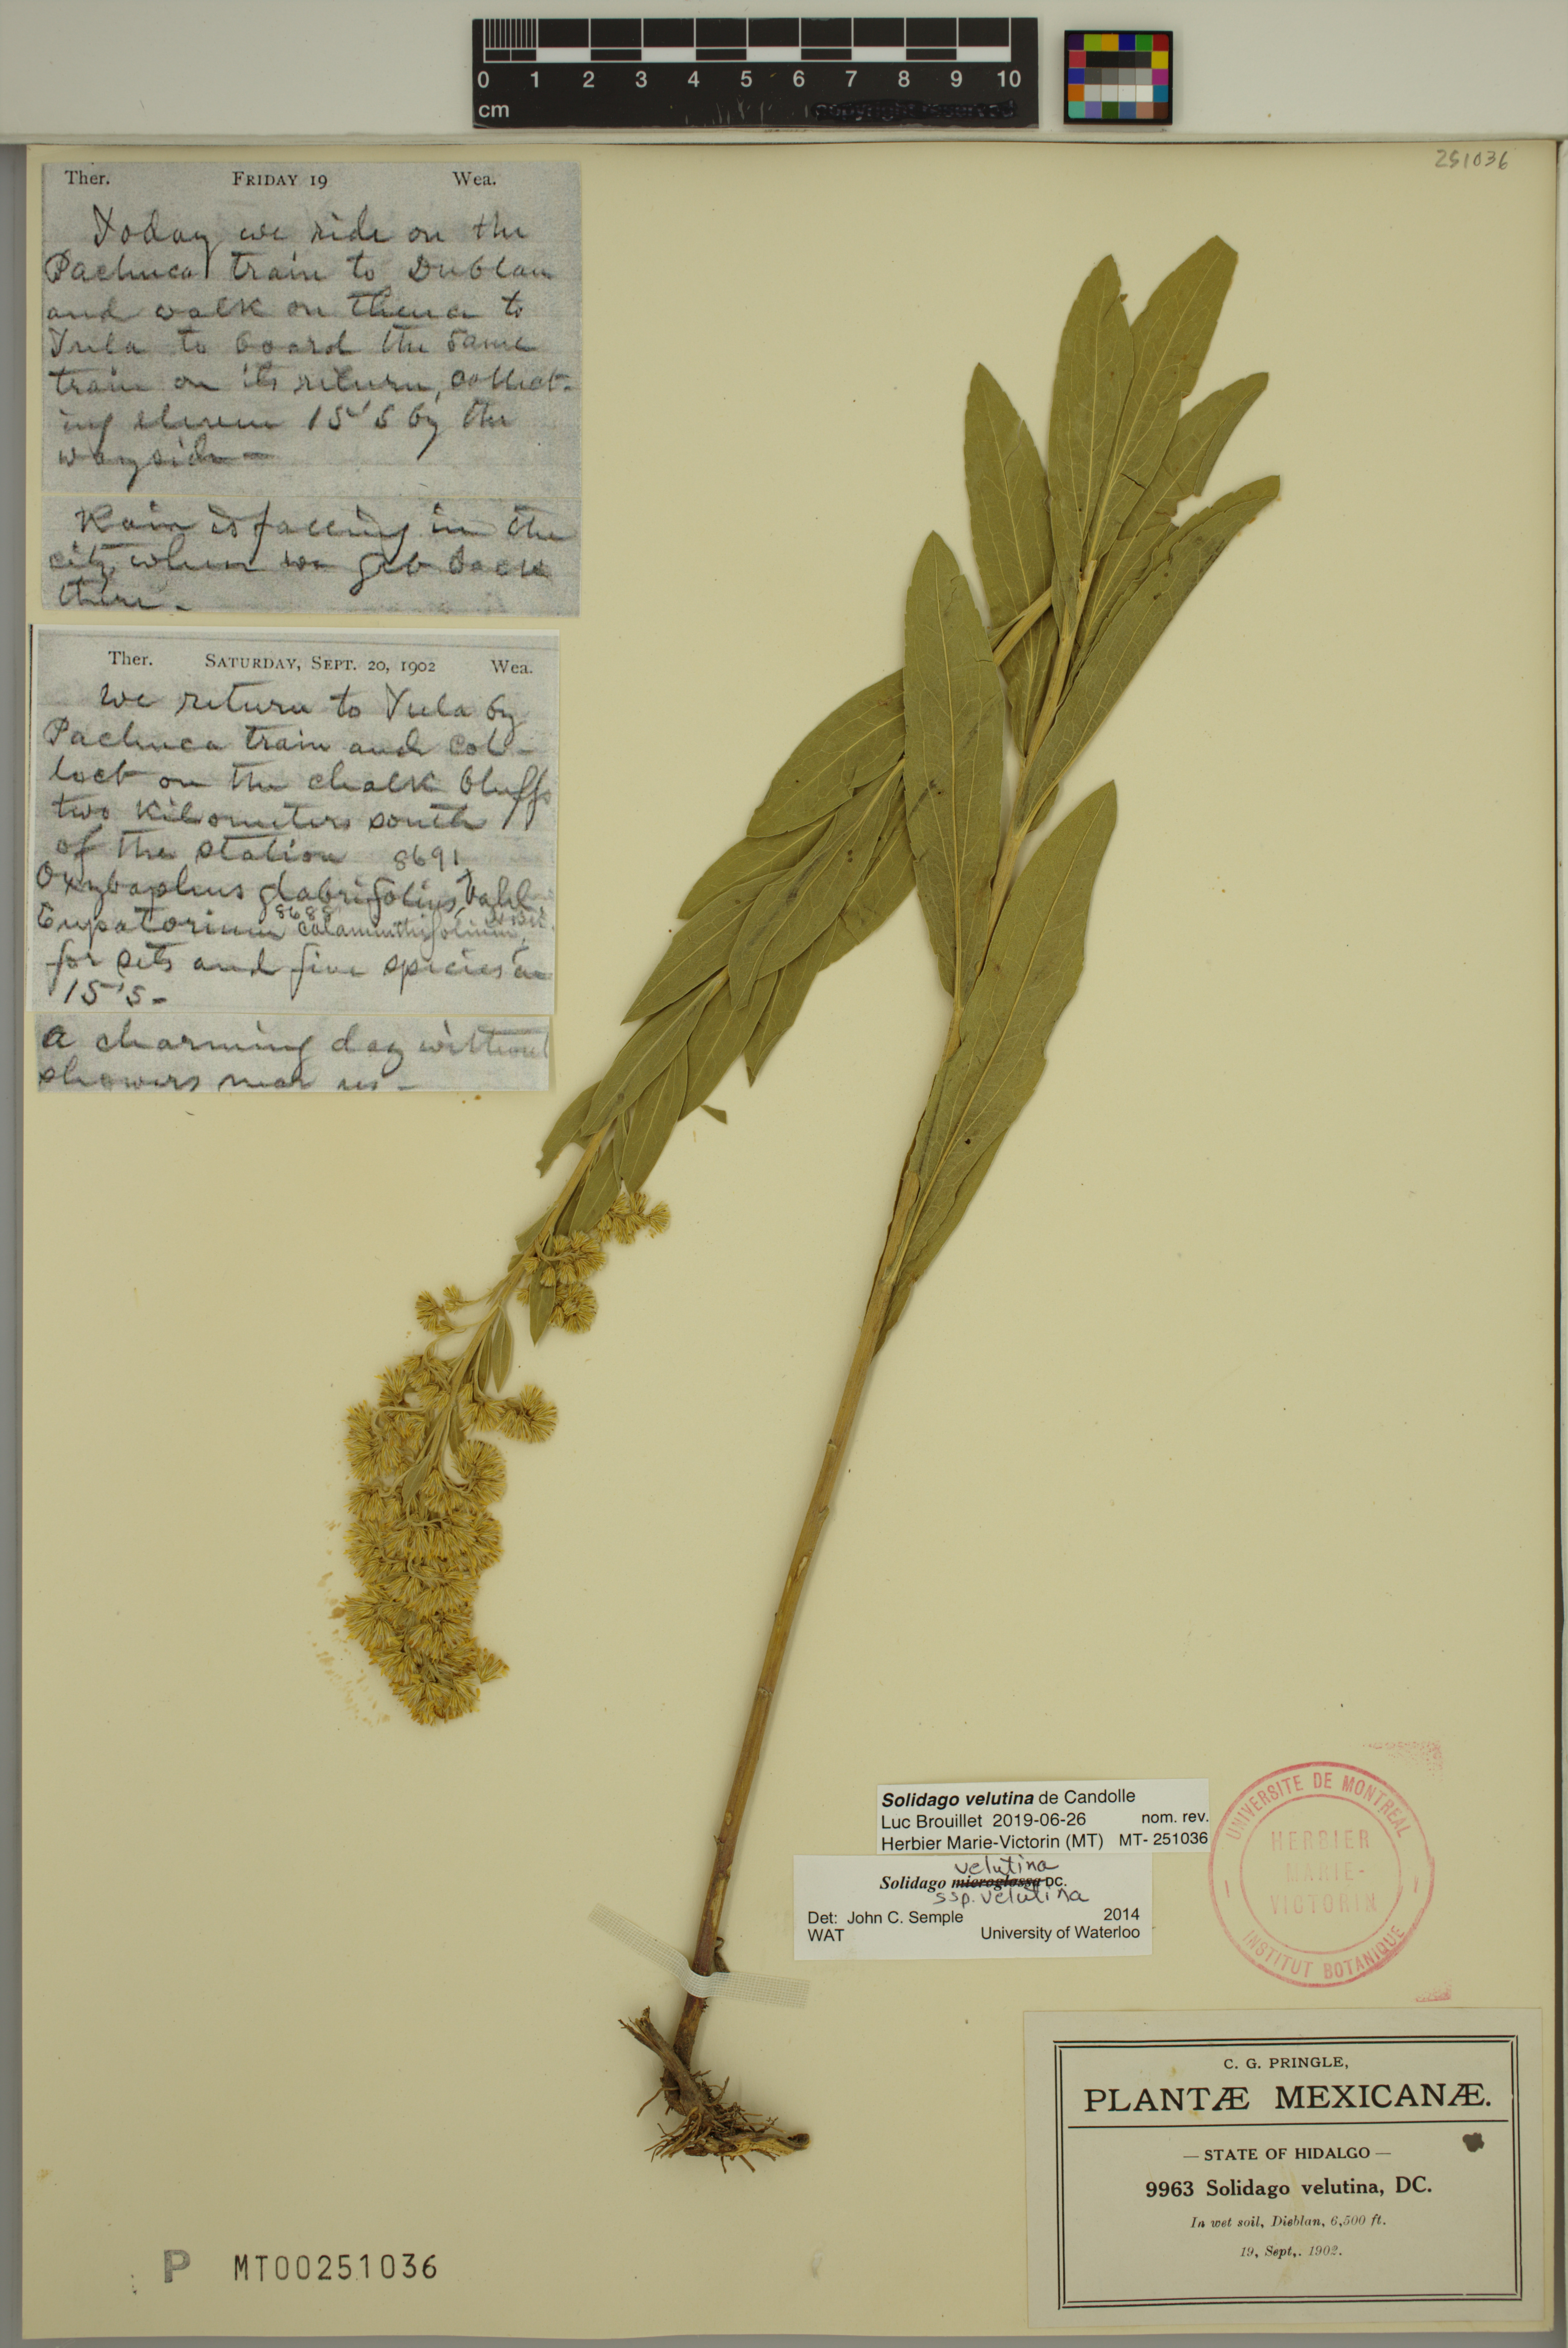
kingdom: Plantae
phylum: Tracheophyta
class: Magnoliopsida
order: Asterales
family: Asteraceae
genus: Solidago
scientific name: Solidago velutina
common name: Three-nerve goldenrod
